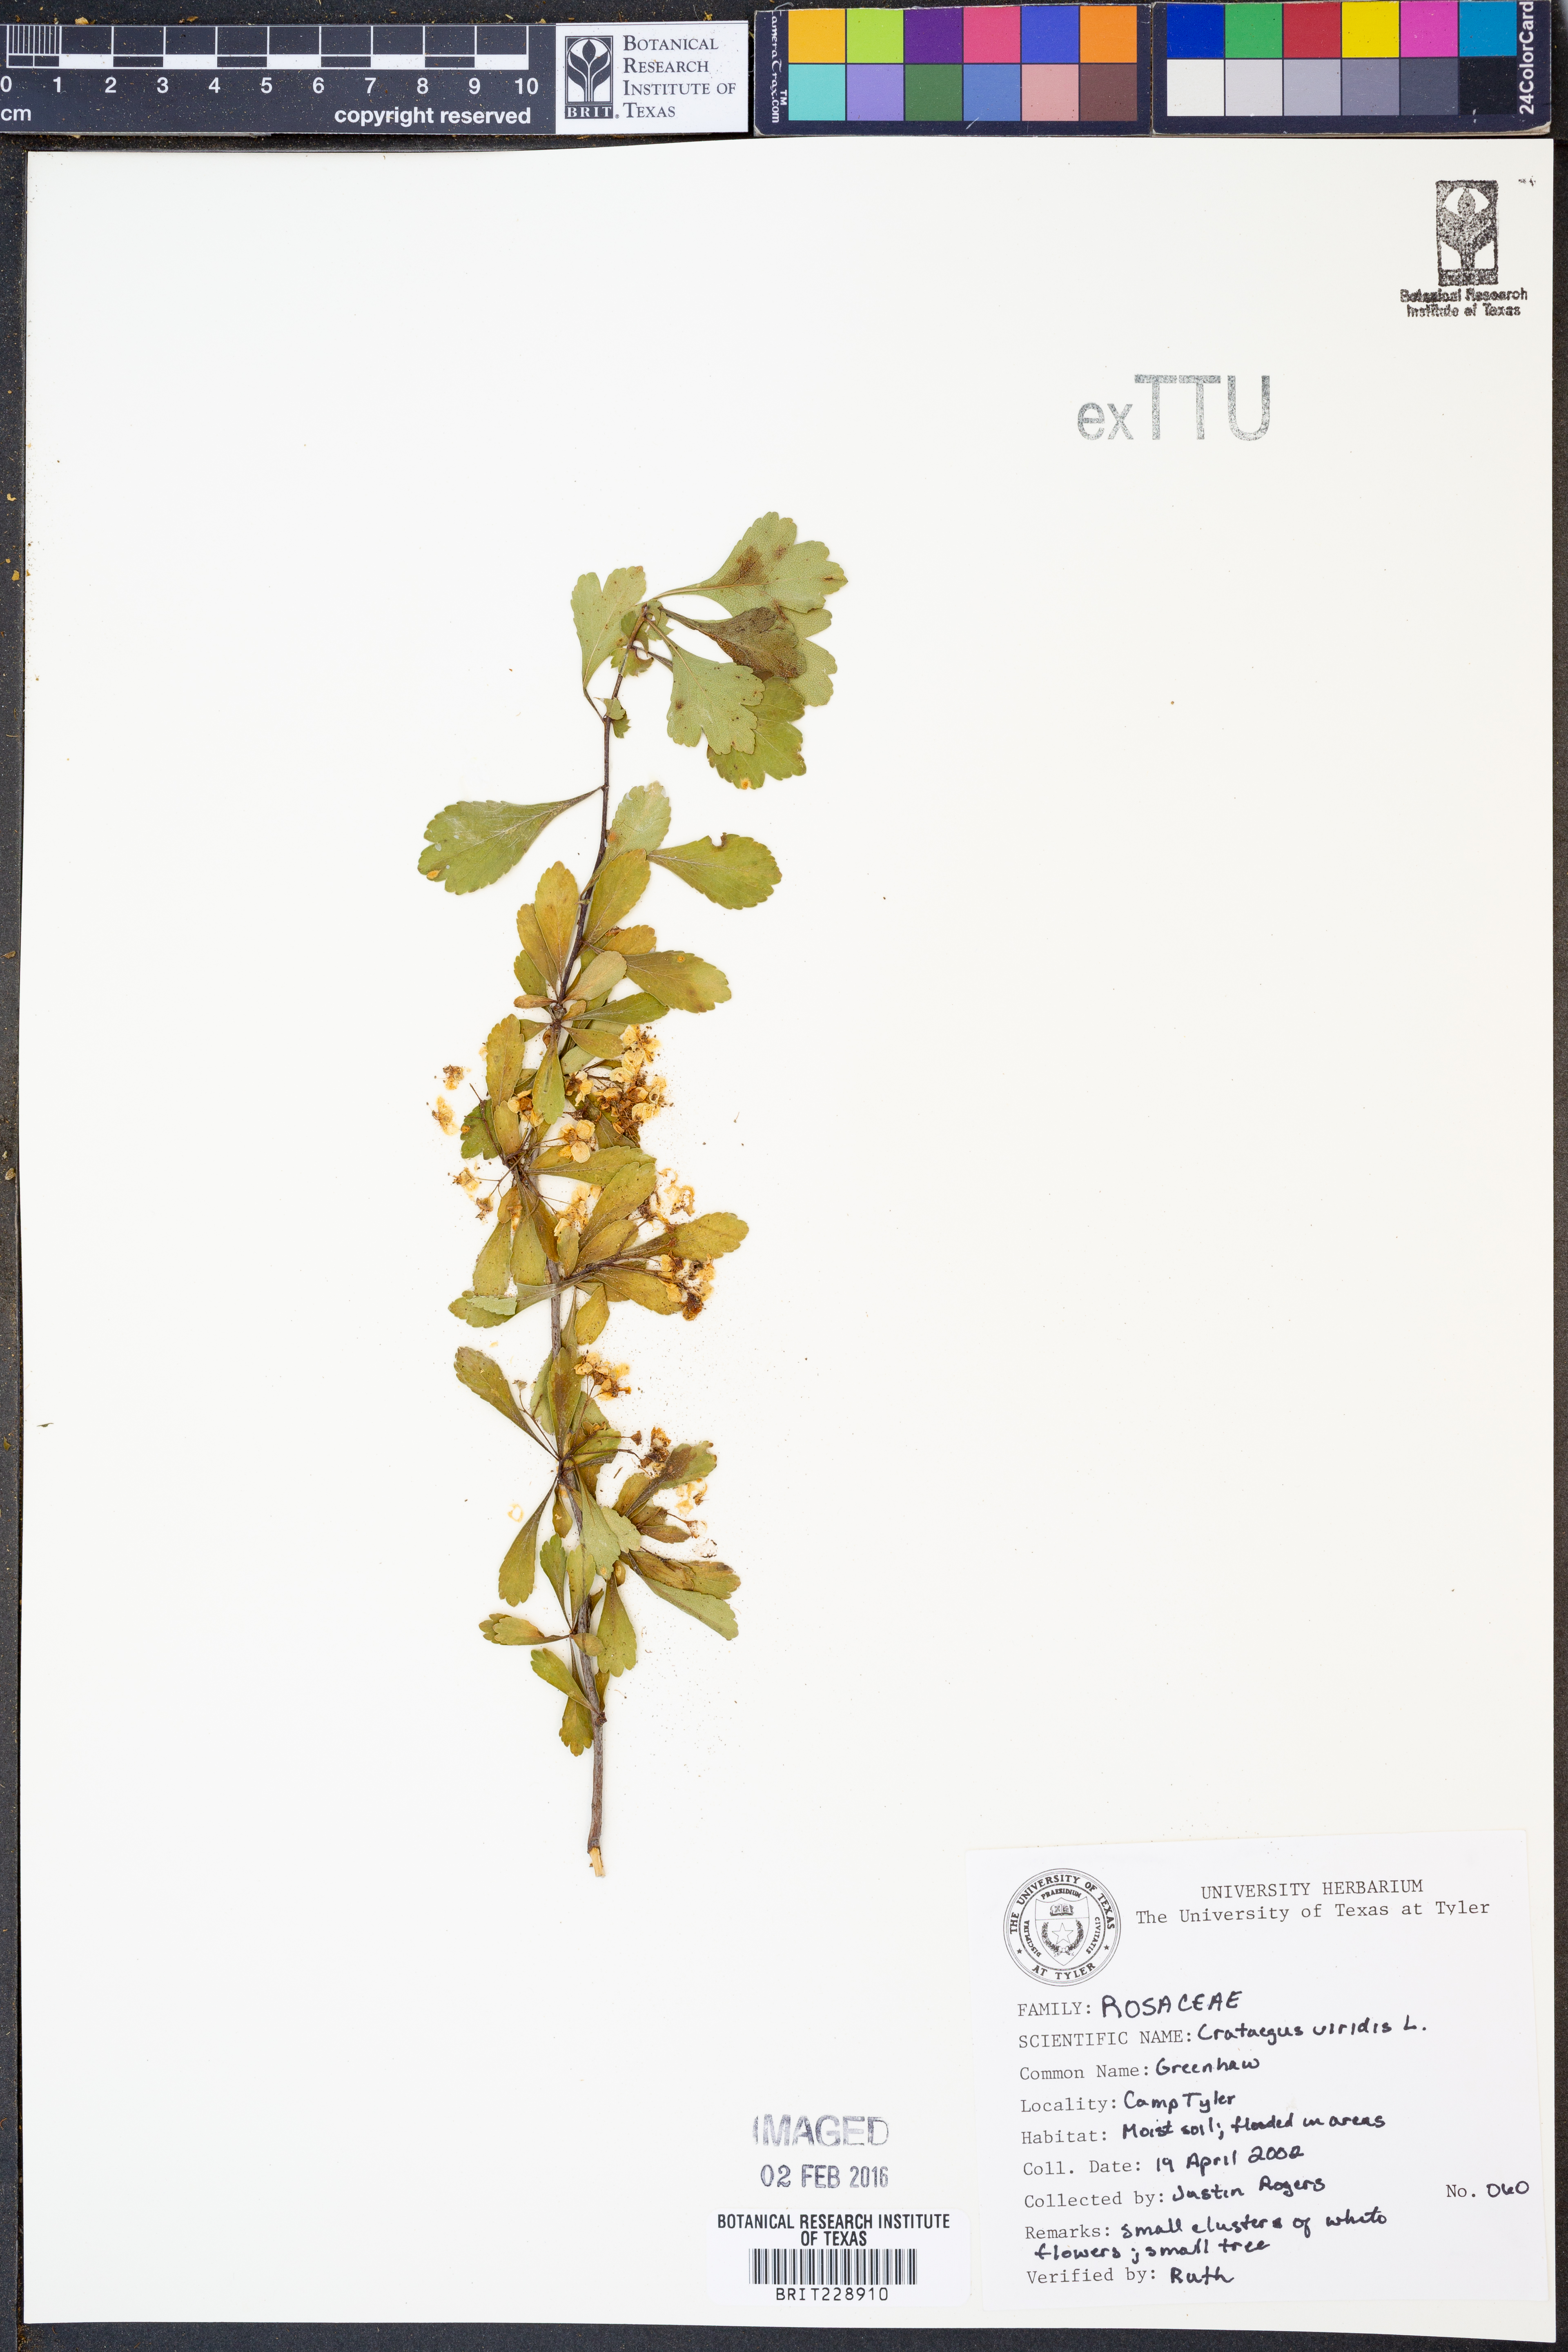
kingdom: Plantae
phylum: Tracheophyta
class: Magnoliopsida
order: Rosales
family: Rosaceae
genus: Crataegus
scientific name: Crataegus viridis
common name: Southernthorn
